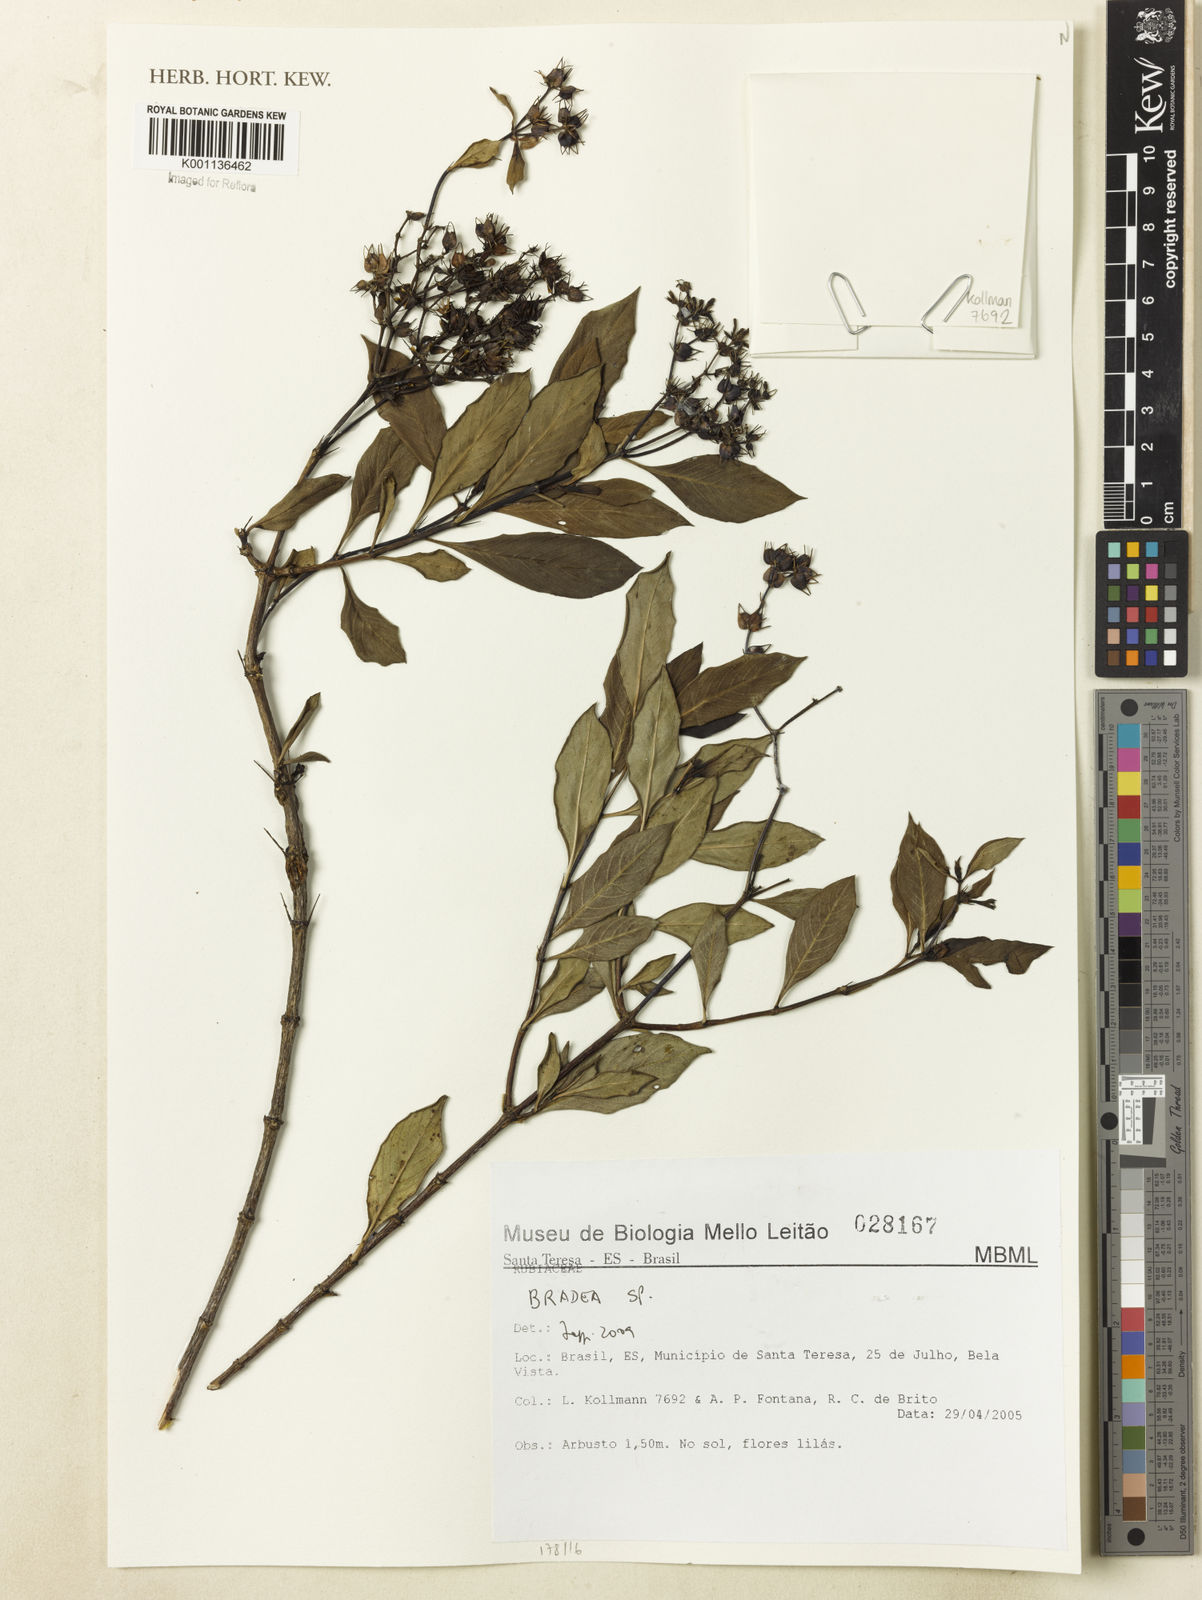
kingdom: Plantae
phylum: Tracheophyta
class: Magnoliopsida
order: Gentianales
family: Rubiaceae
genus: Bradea
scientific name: Bradea
